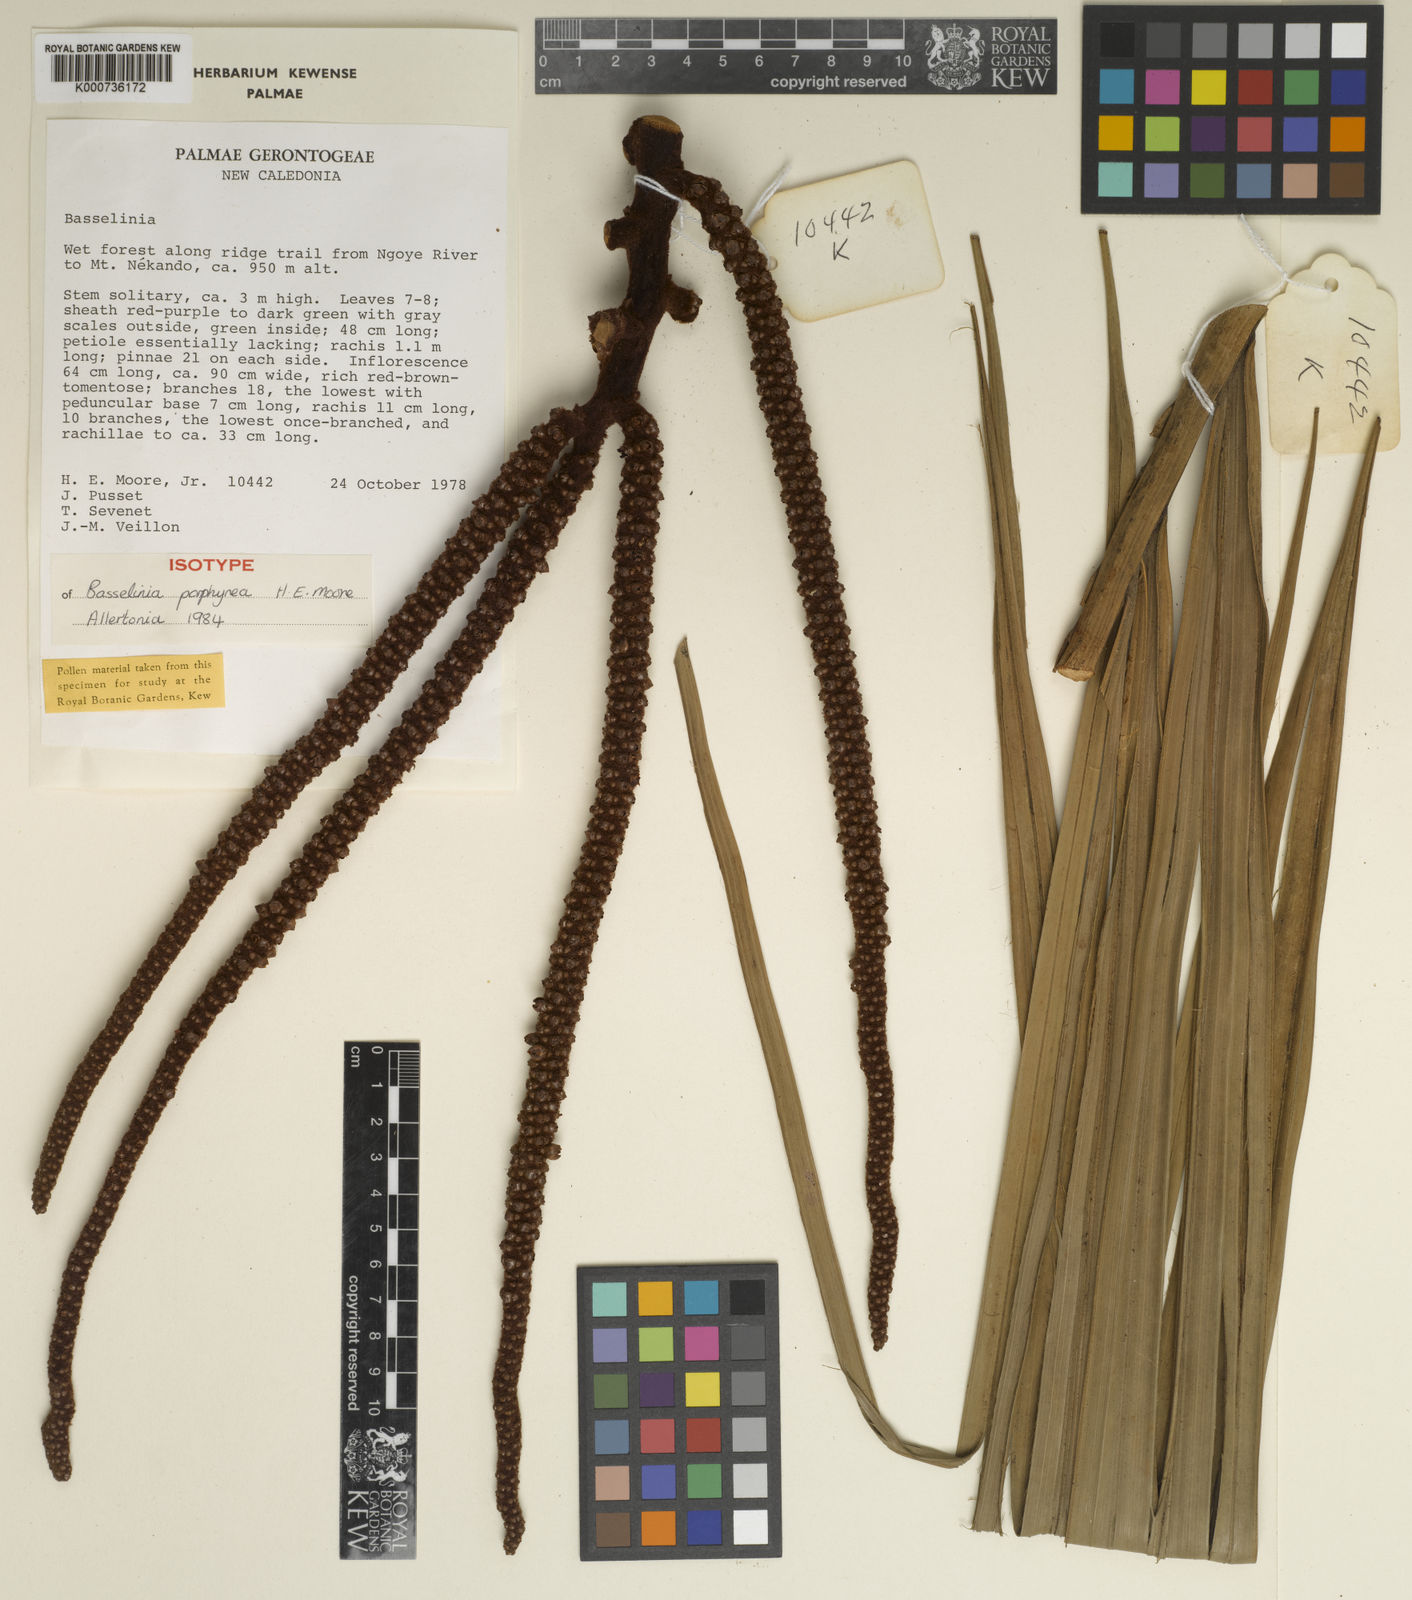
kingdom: Plantae
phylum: Tracheophyta
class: Liliopsida
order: Arecales
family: Arecaceae
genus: Basselinia
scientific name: Basselinia porphyrea
